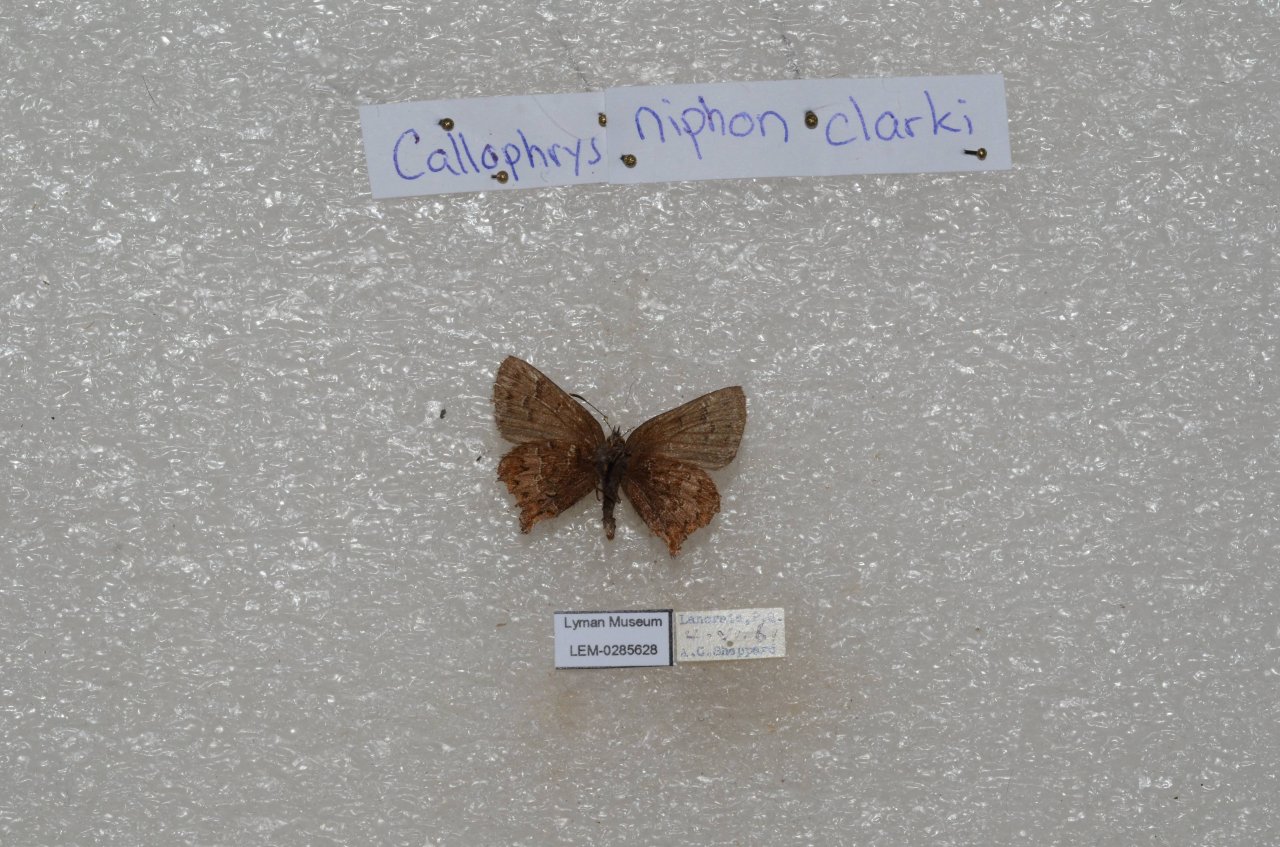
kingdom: Animalia
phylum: Arthropoda
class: Insecta
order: Lepidoptera
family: Lycaenidae
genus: Incisalia
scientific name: Incisalia niphon
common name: Eastern Pine Elfin
